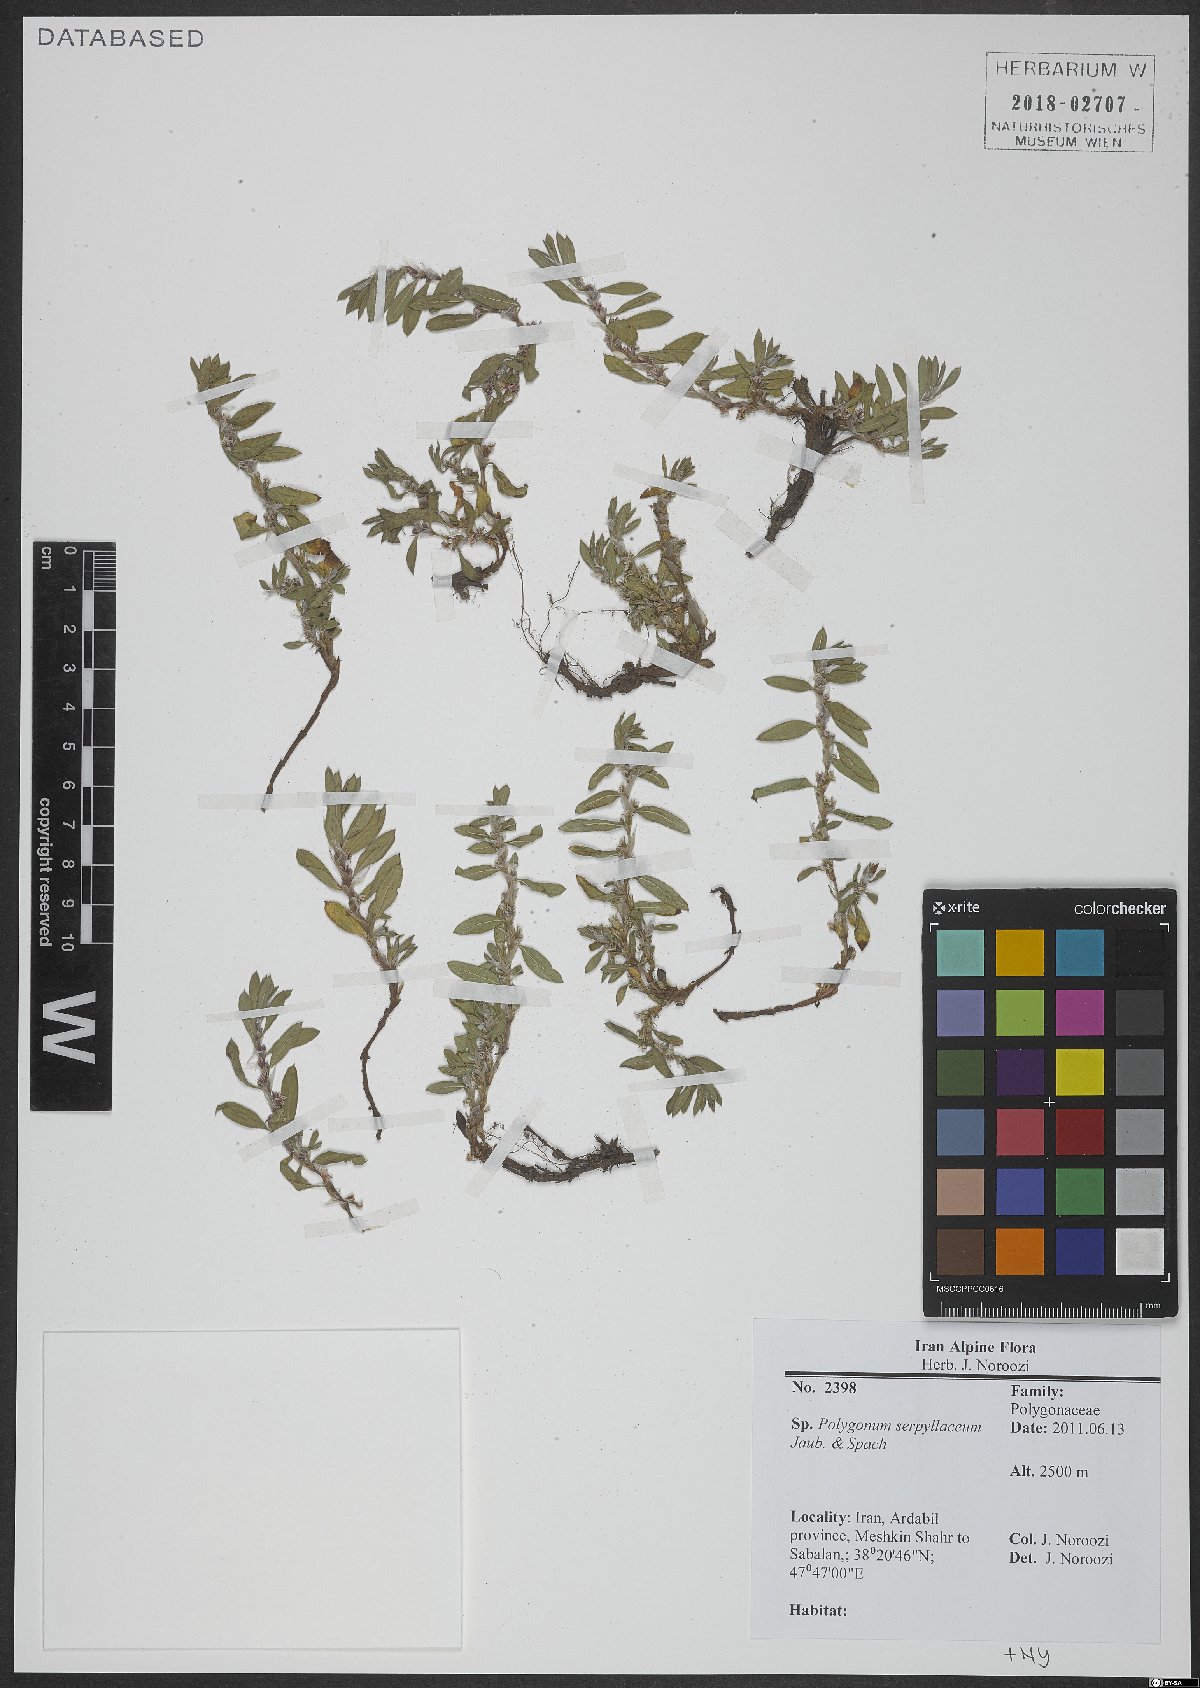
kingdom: Plantae
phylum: Tracheophyta
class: Magnoliopsida
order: Caryophyllales
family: Polygonaceae
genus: Polygonum
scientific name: Polygonum cognatum
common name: Indian knotgrass
